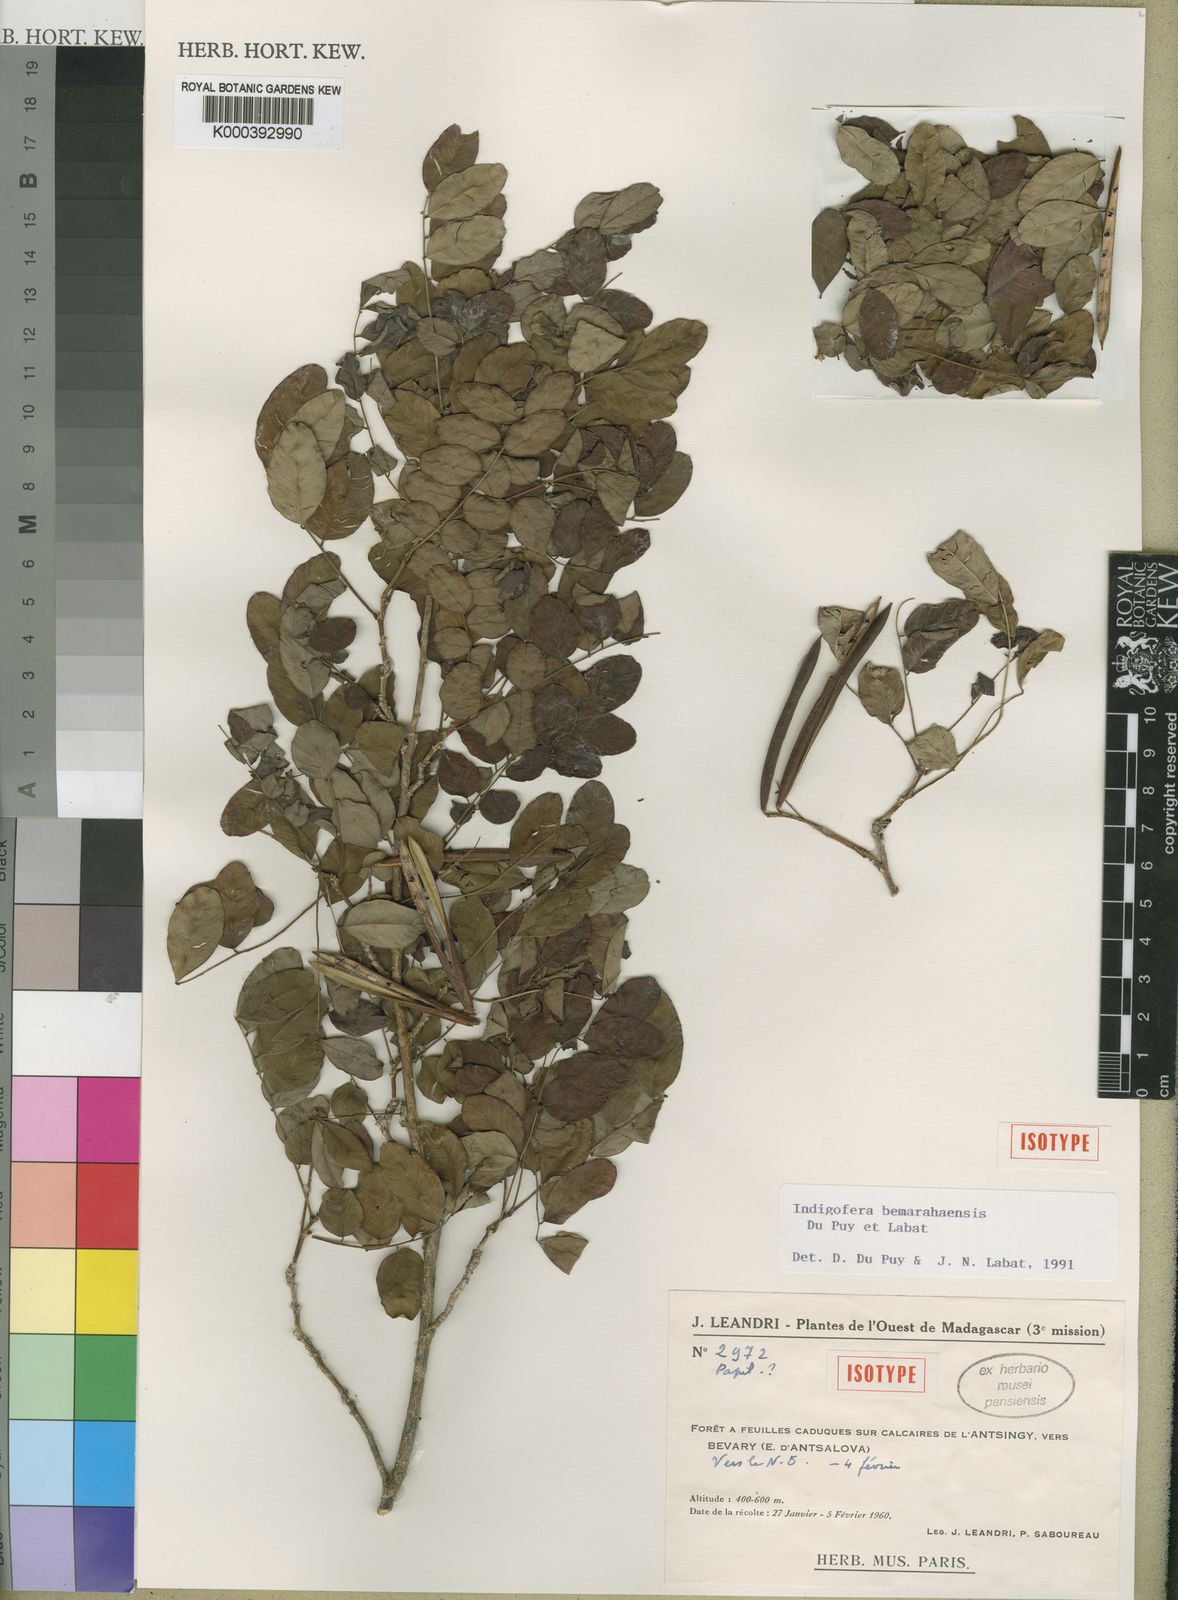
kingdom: Plantae
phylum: Tracheophyta
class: Magnoliopsida
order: Fabales
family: Fabaceae
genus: Indigofera
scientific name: Indigofera bemarahaensis
